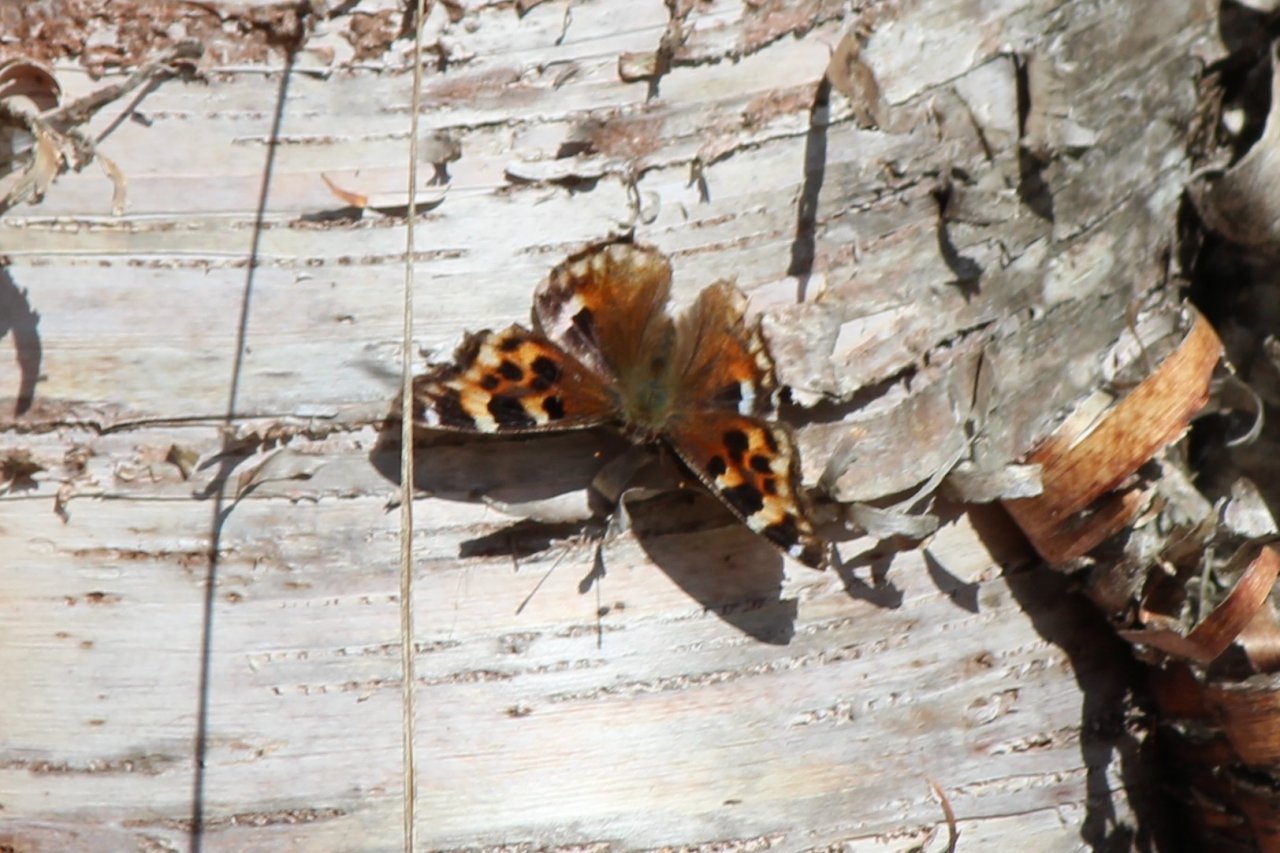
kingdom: Animalia
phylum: Arthropoda
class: Insecta
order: Lepidoptera
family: Nymphalidae
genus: Polygonia
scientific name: Polygonia vaualbum
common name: Compton Tortoiseshell
